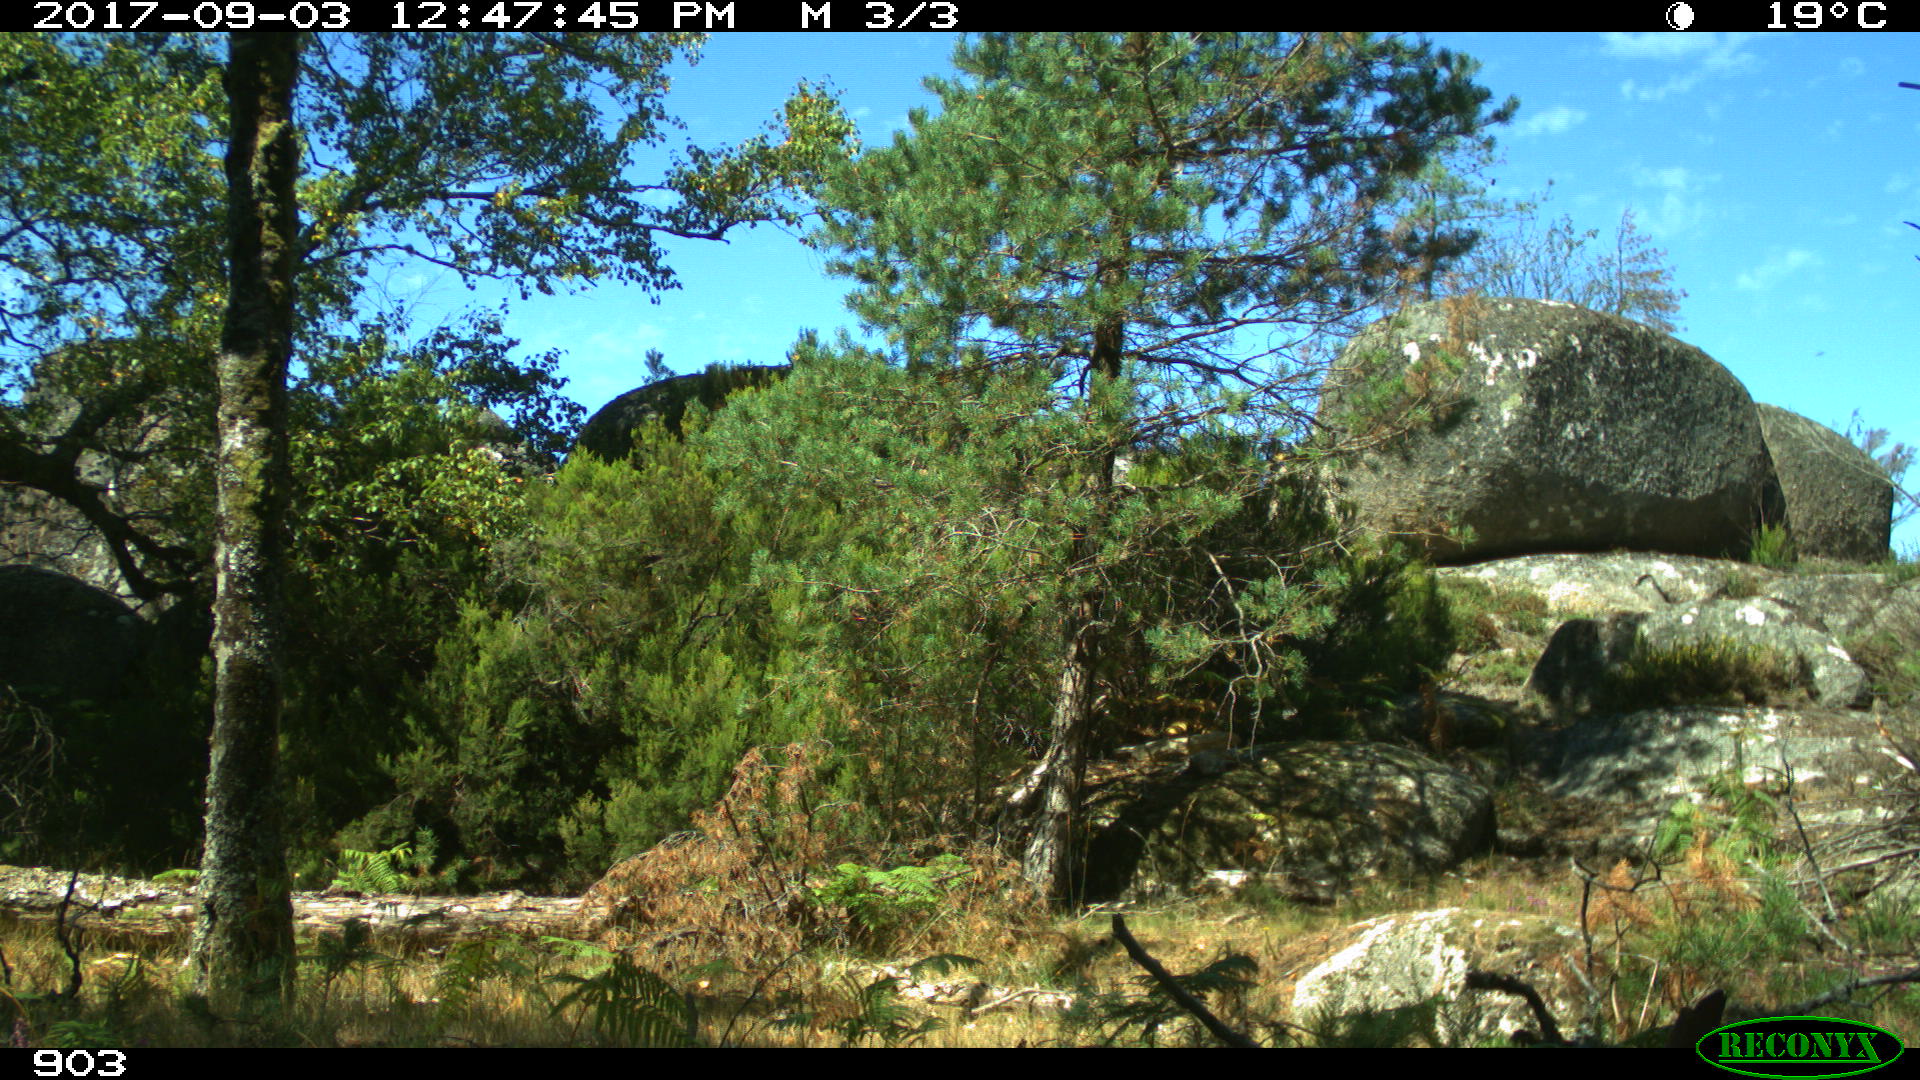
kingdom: Animalia
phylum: Chordata
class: Mammalia
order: Perissodactyla
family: Equidae
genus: Equus
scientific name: Equus caballus
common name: Horse
